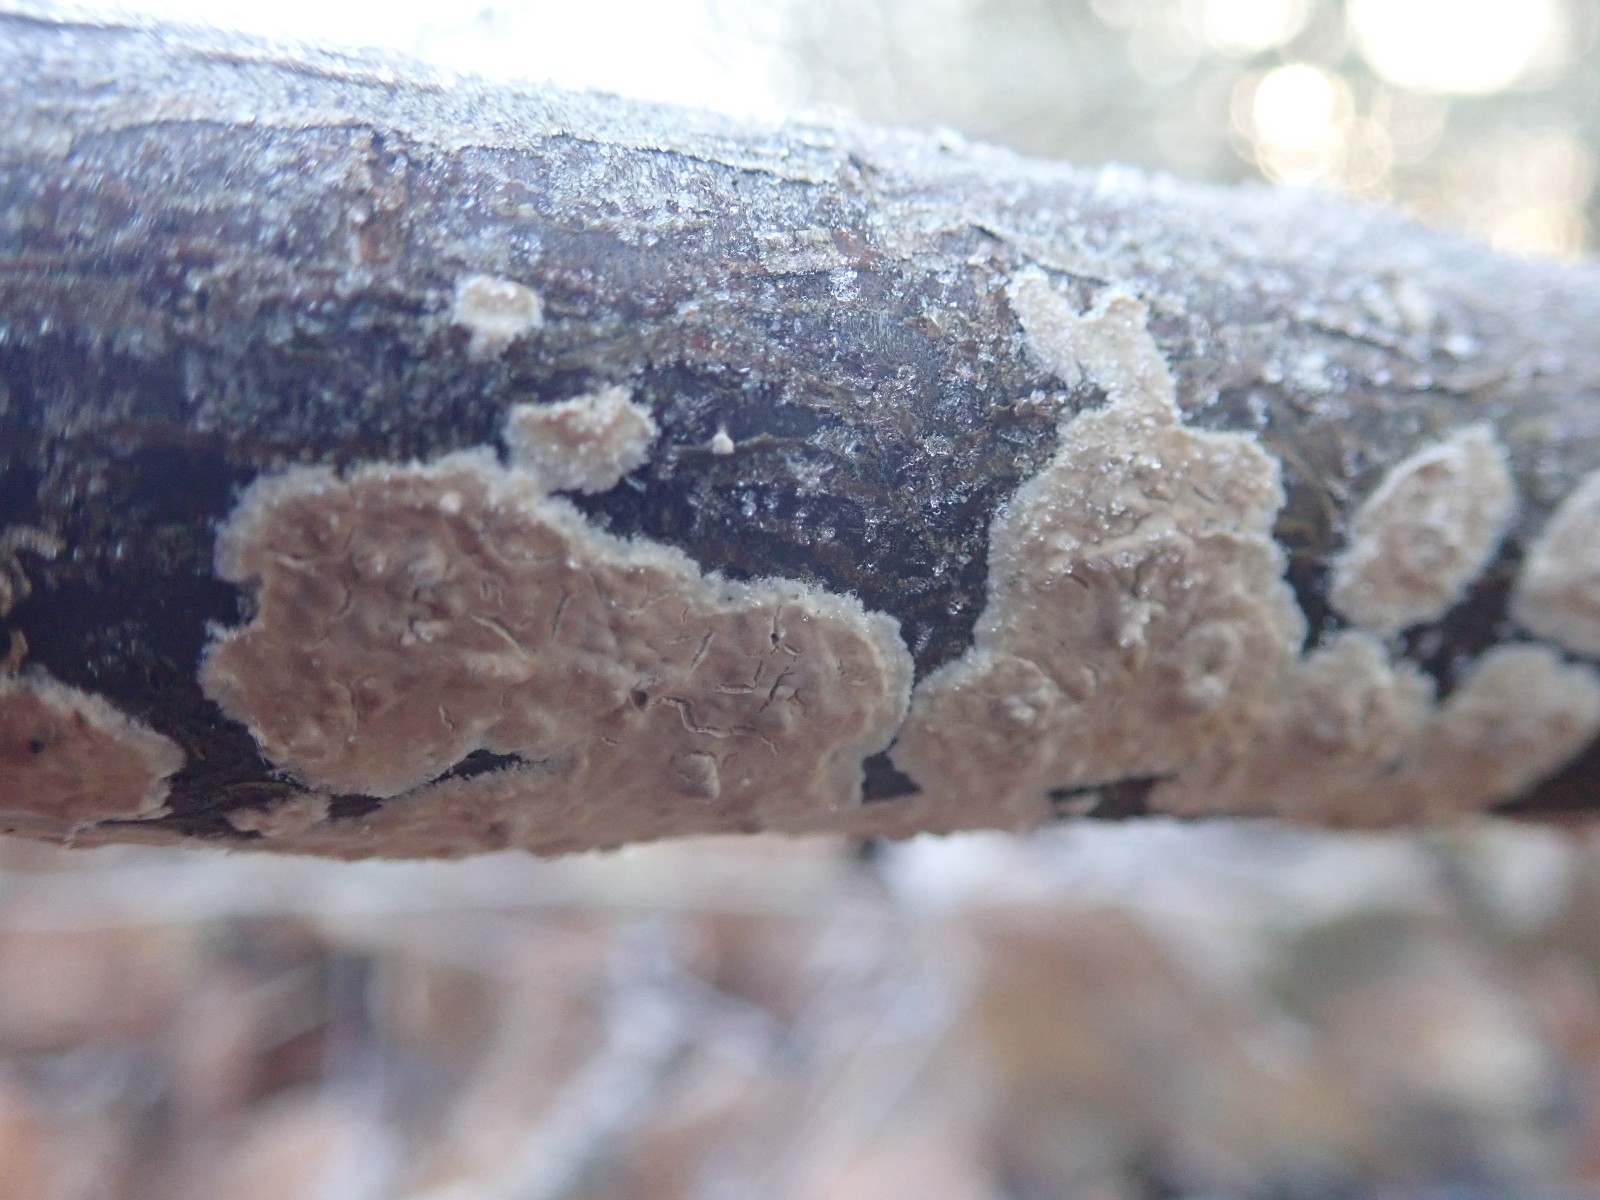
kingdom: Fungi
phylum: Basidiomycota
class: Agaricomycetes
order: Agaricales
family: Physalacriaceae
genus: Cylindrobasidium
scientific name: Cylindrobasidium evolvens
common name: sprækkehinde
